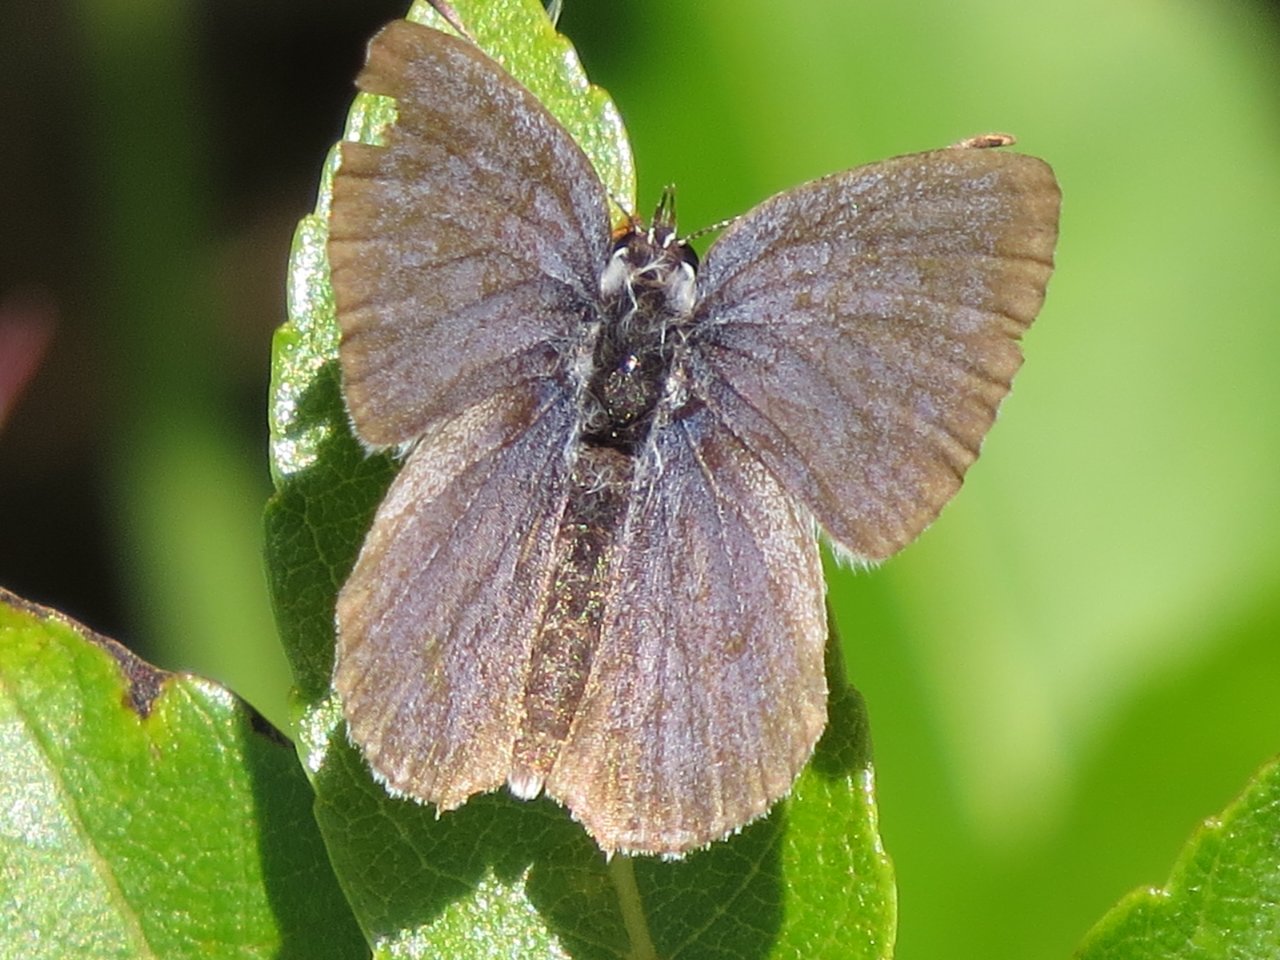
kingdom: Animalia
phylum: Arthropoda
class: Insecta
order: Lepidoptera
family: Lycaenidae
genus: Elkalyce
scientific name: Elkalyce amyntula
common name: Western Tailed-Blue
